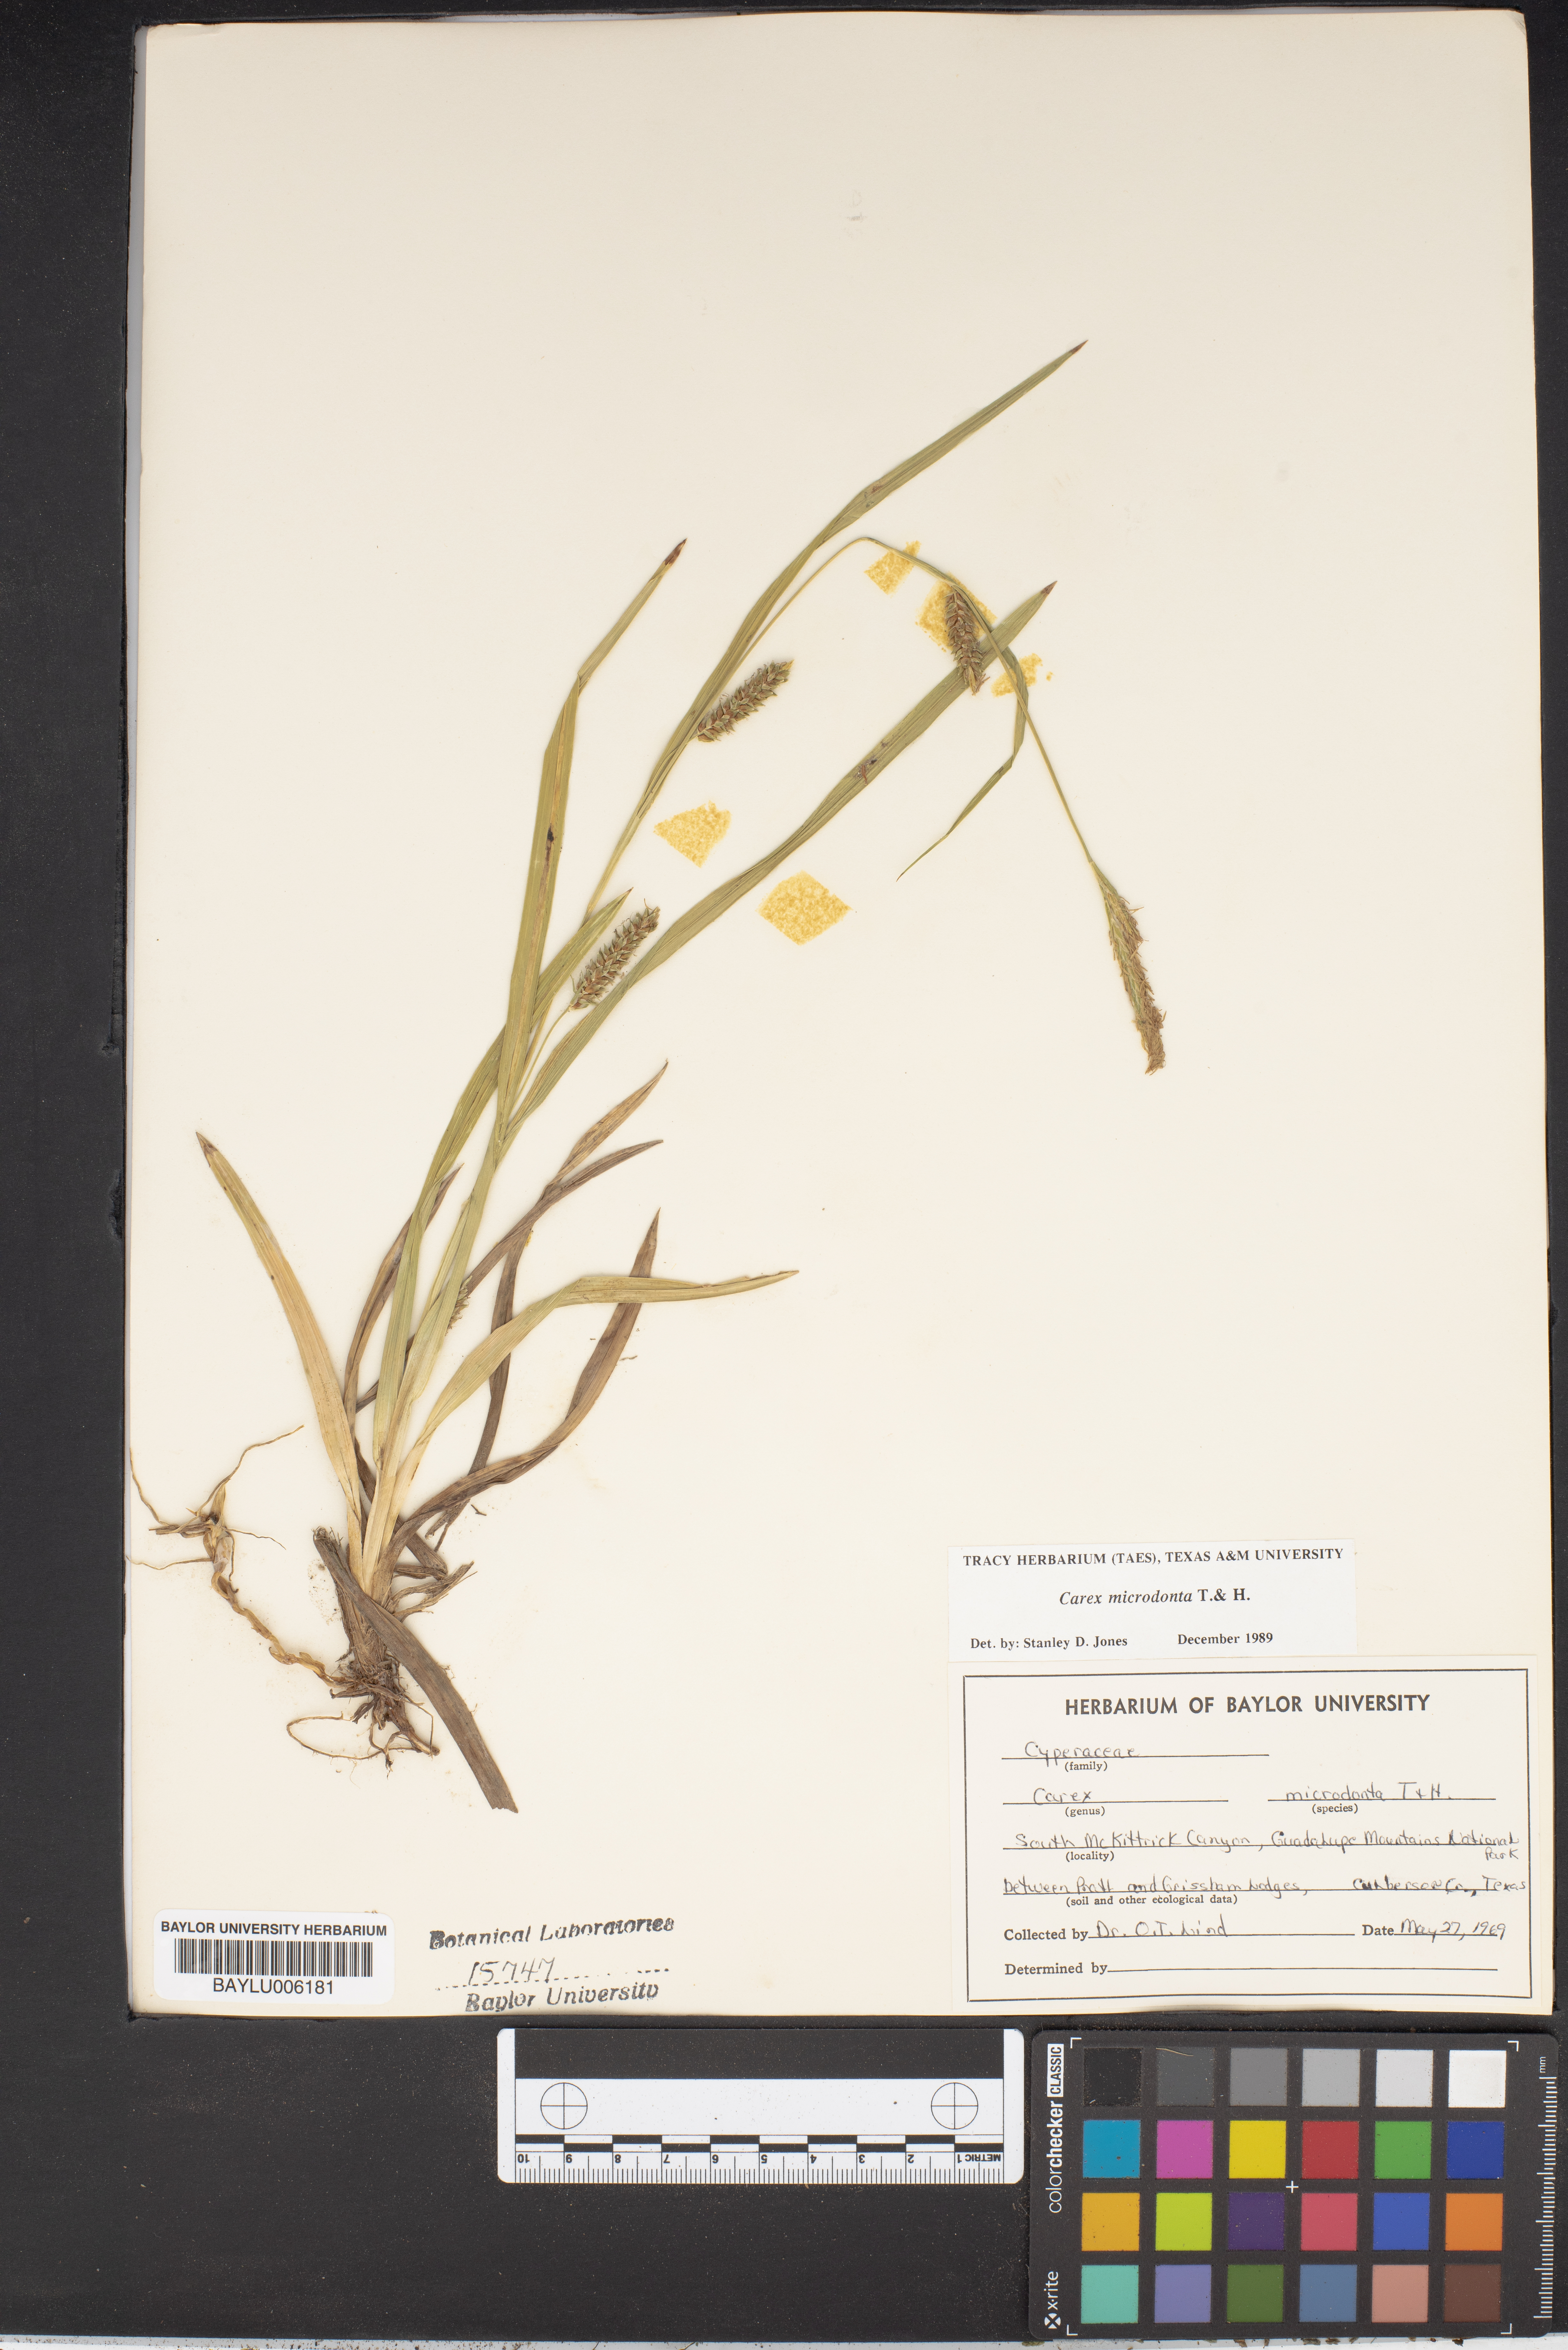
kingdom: Plantae
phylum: Tracheophyta
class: Liliopsida
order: Poales
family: Cyperaceae
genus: Carex
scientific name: Carex microdonta
